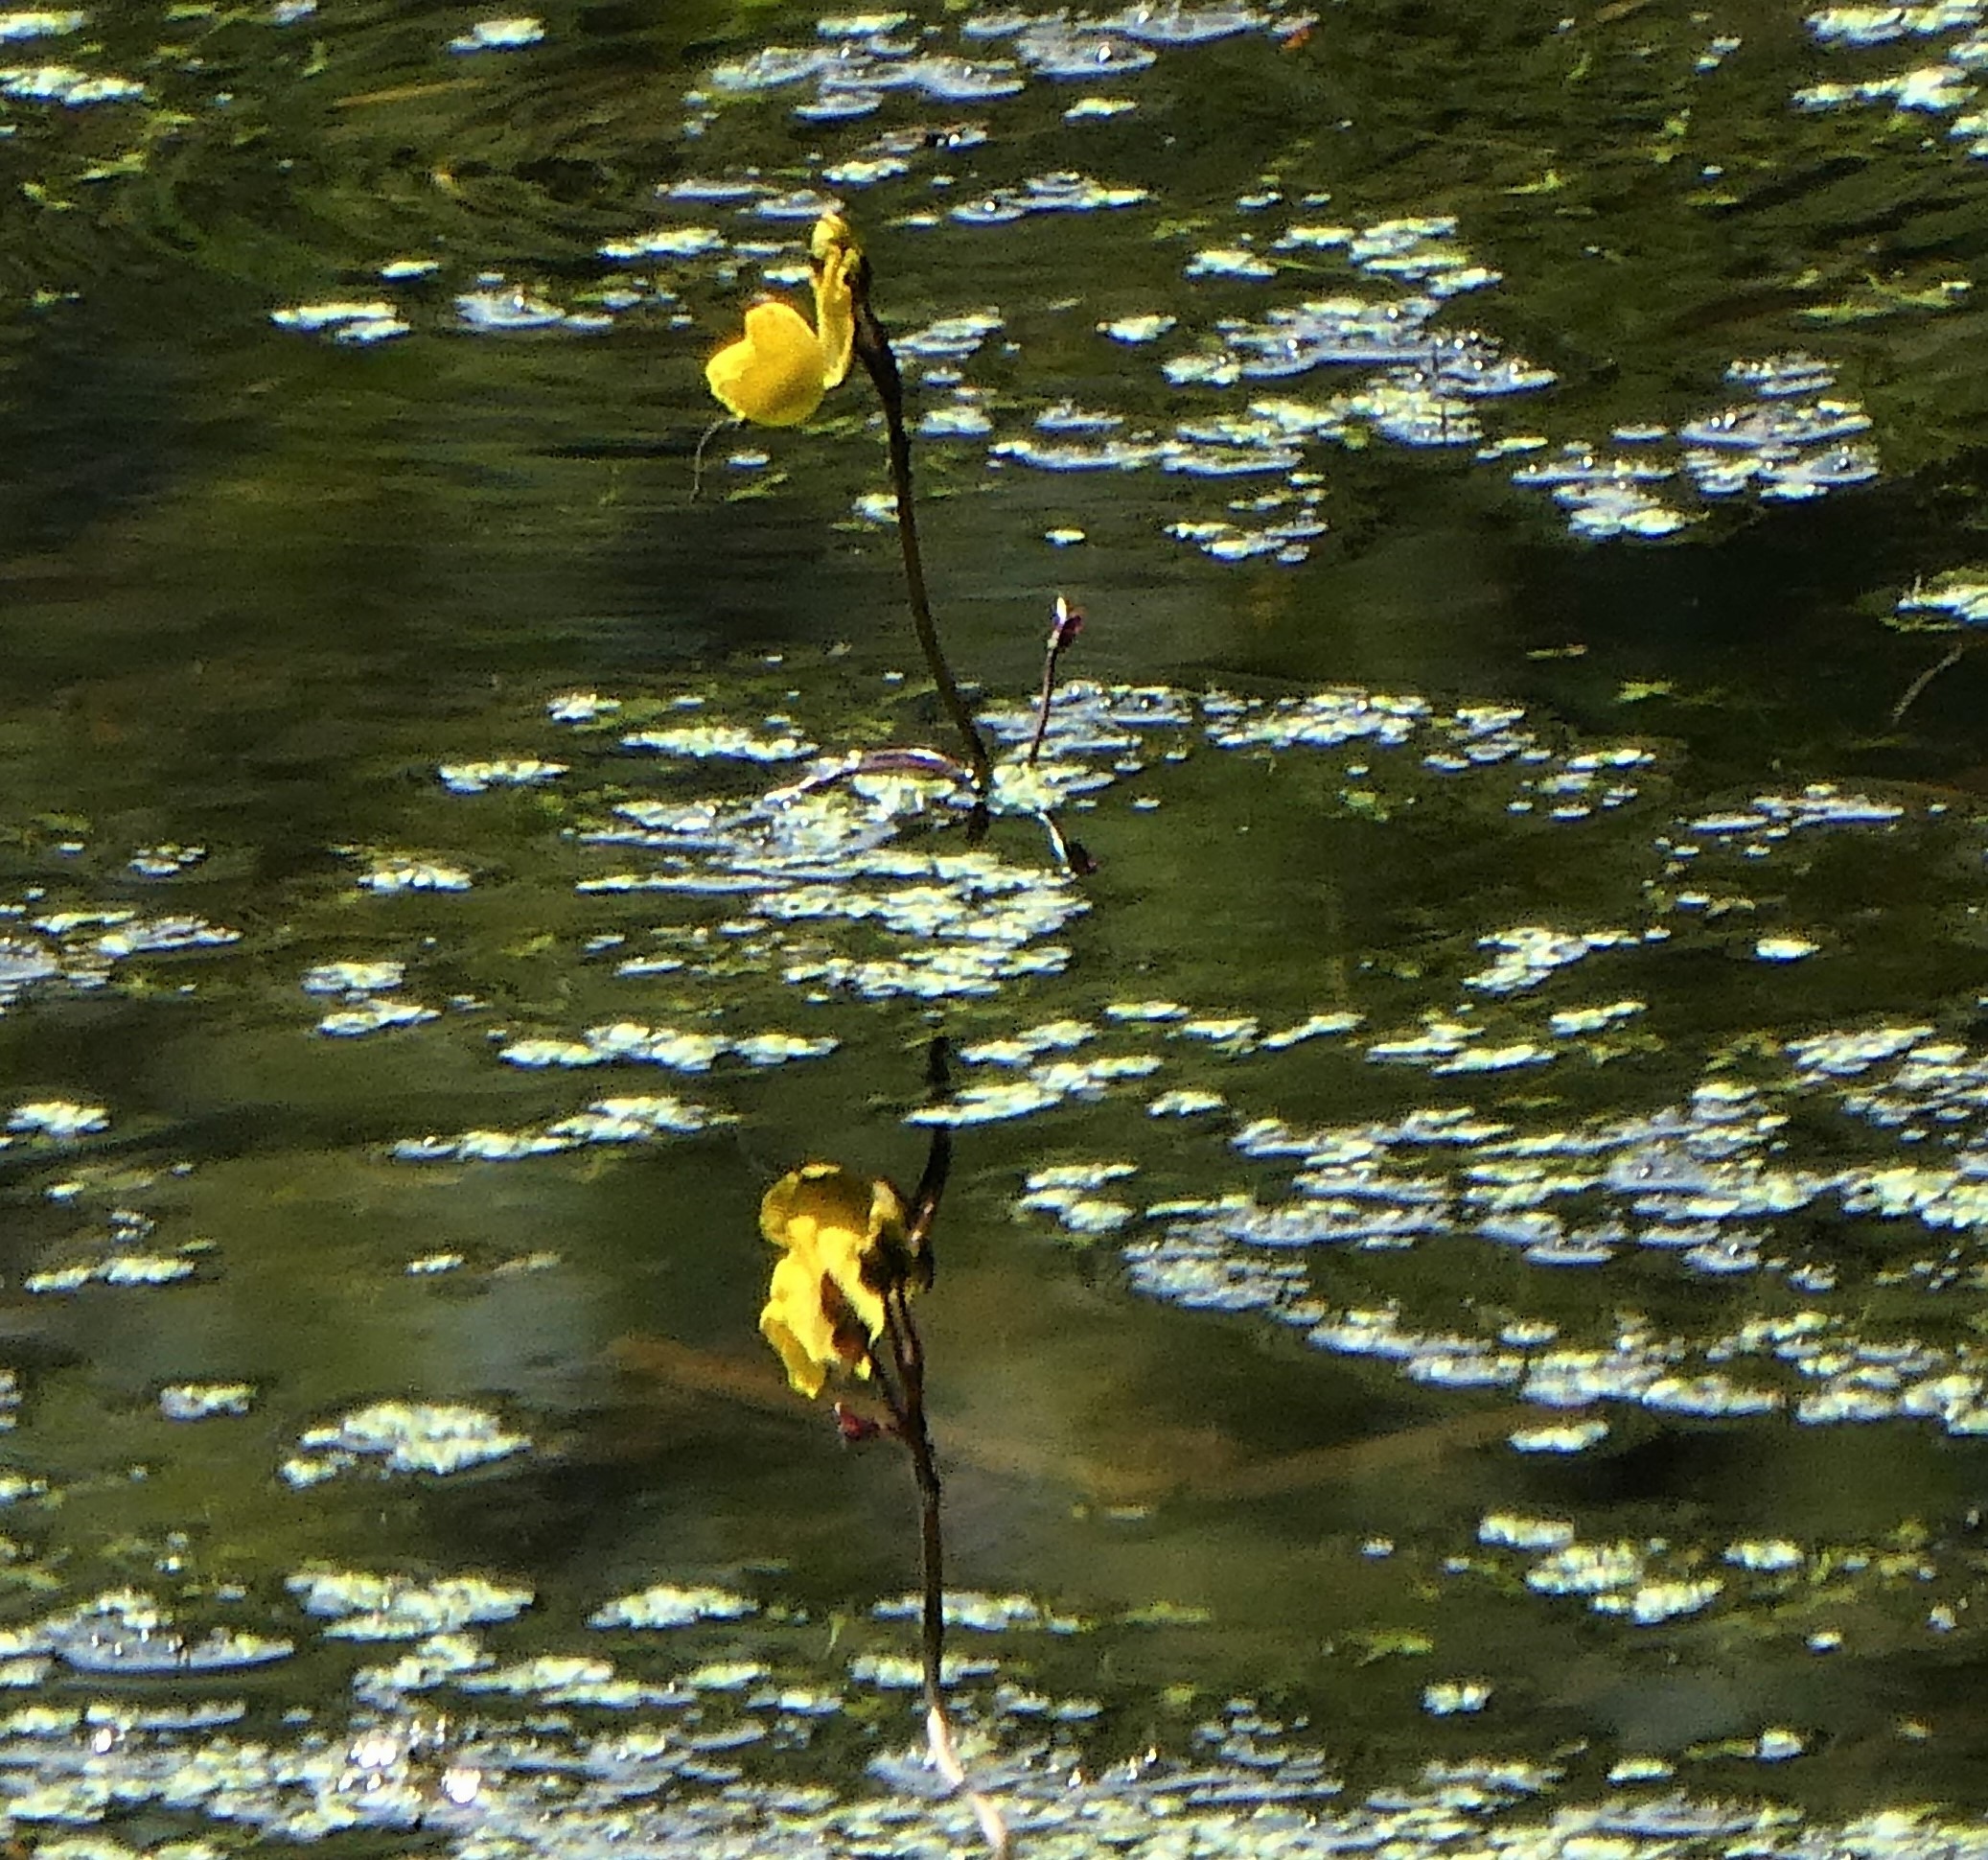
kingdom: Plantae
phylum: Tracheophyta
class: Magnoliopsida
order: Lamiales
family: Lentibulariaceae
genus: Utricularia
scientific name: Utricularia vulgaris
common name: Almindelig blærerod
